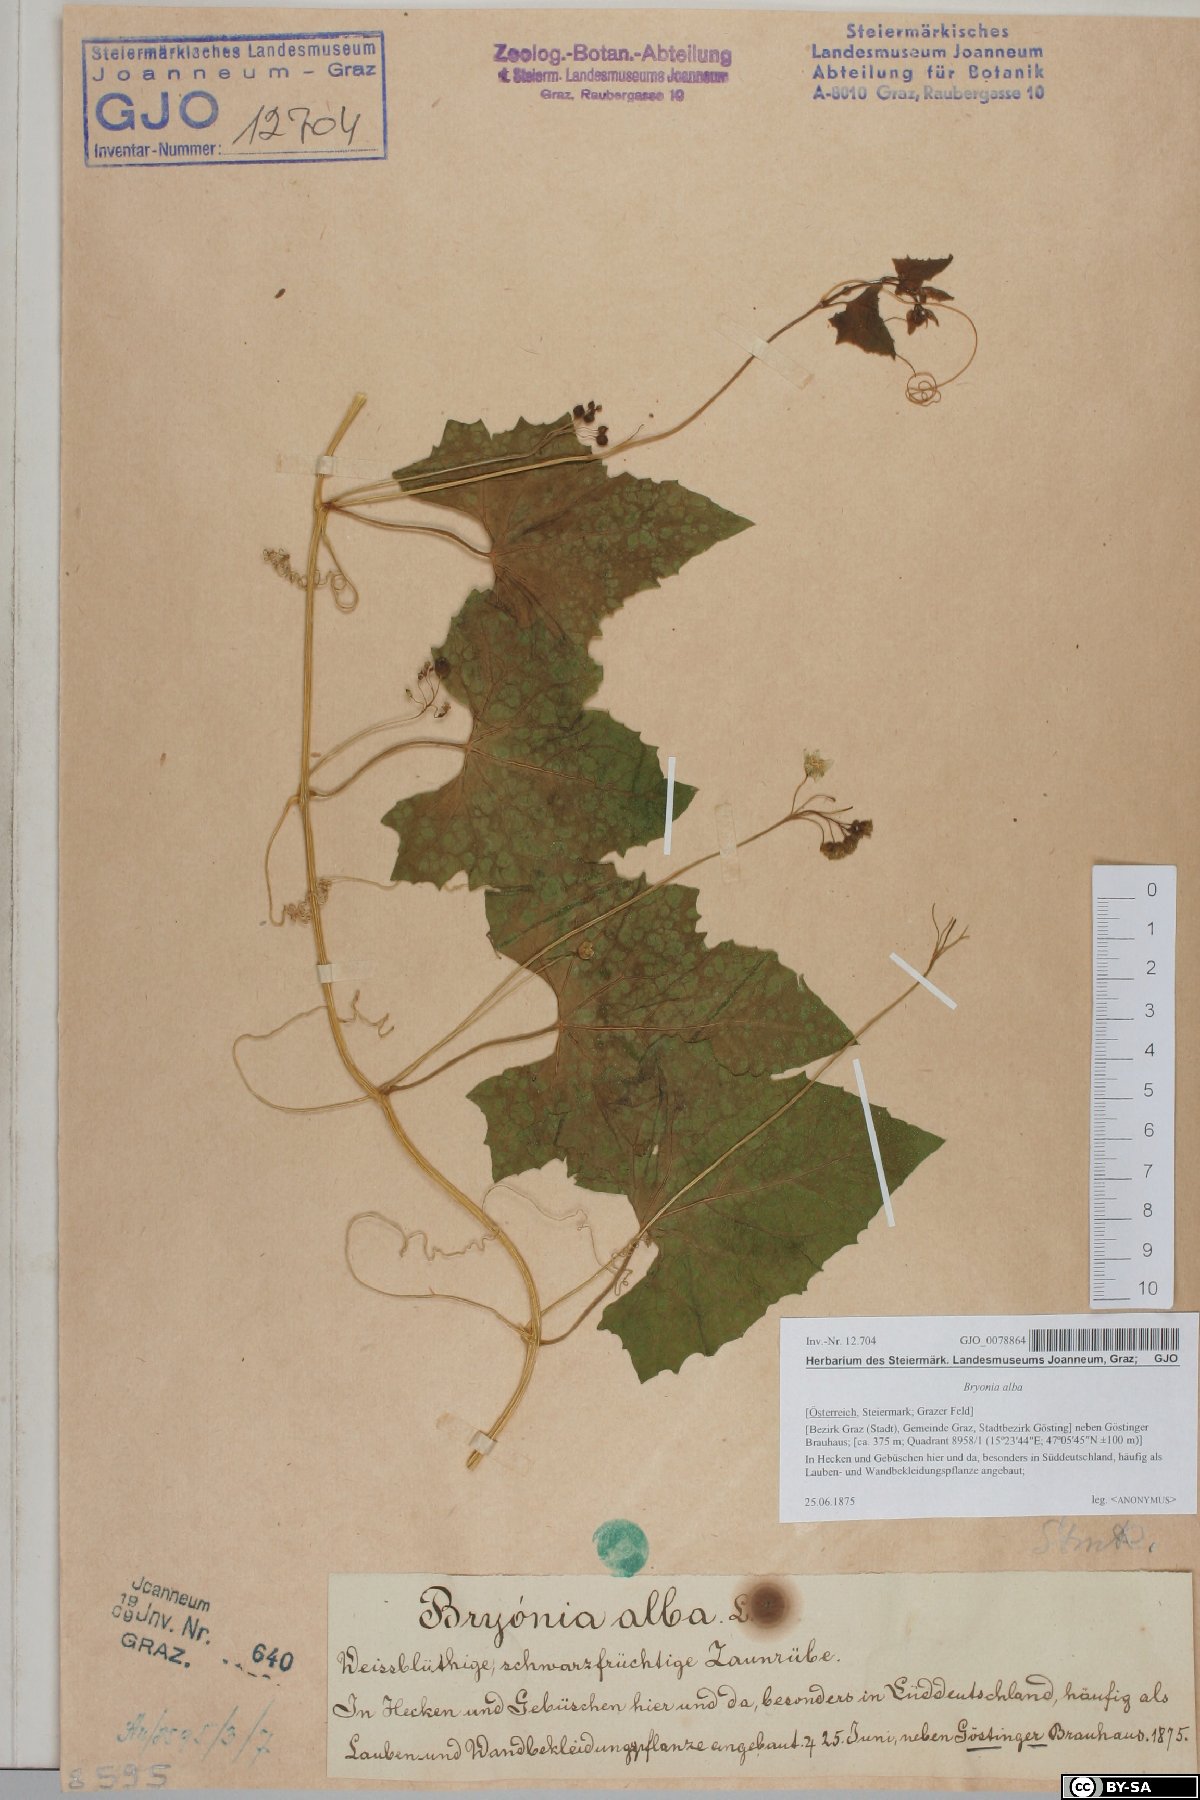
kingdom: Plantae
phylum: Tracheophyta
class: Magnoliopsida
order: Cucurbitales
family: Cucurbitaceae
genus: Bryonia
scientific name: Bryonia alba
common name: White bryony
